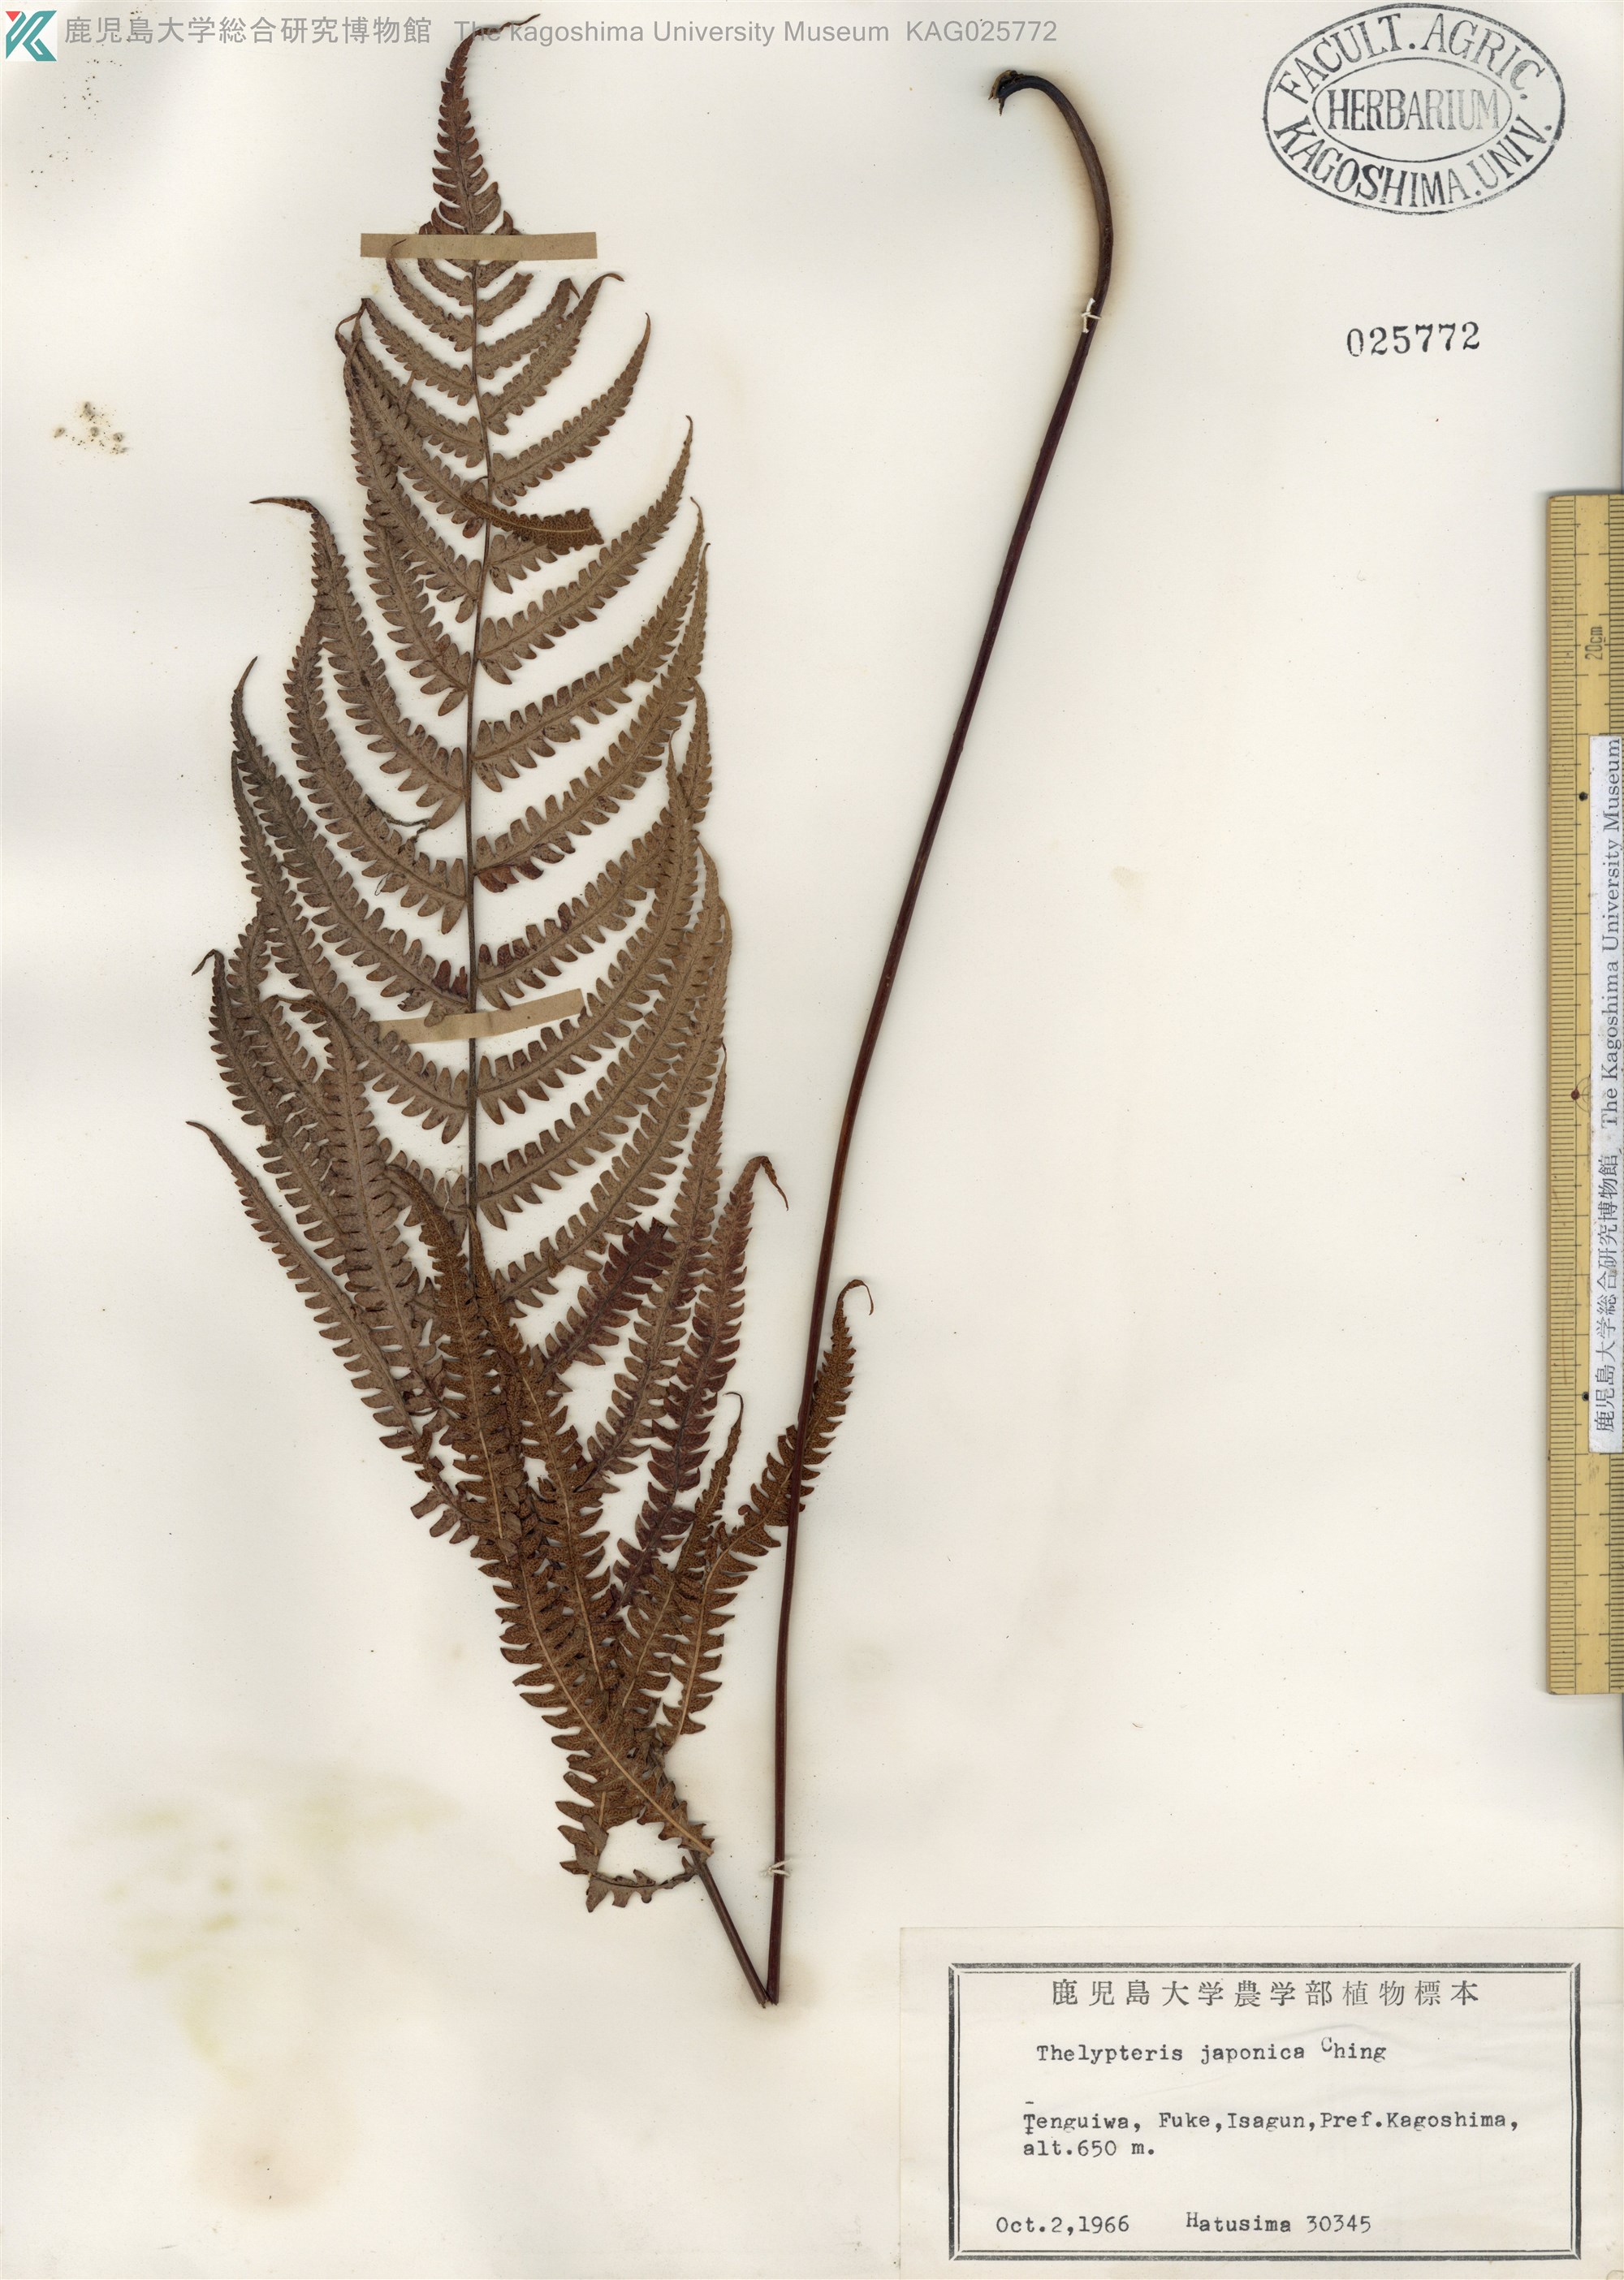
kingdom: Plantae
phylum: Tracheophyta
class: Polypodiopsida
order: Polypodiales
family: Thelypteridaceae
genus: Coryphopteris
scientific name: Coryphopteris japonica
